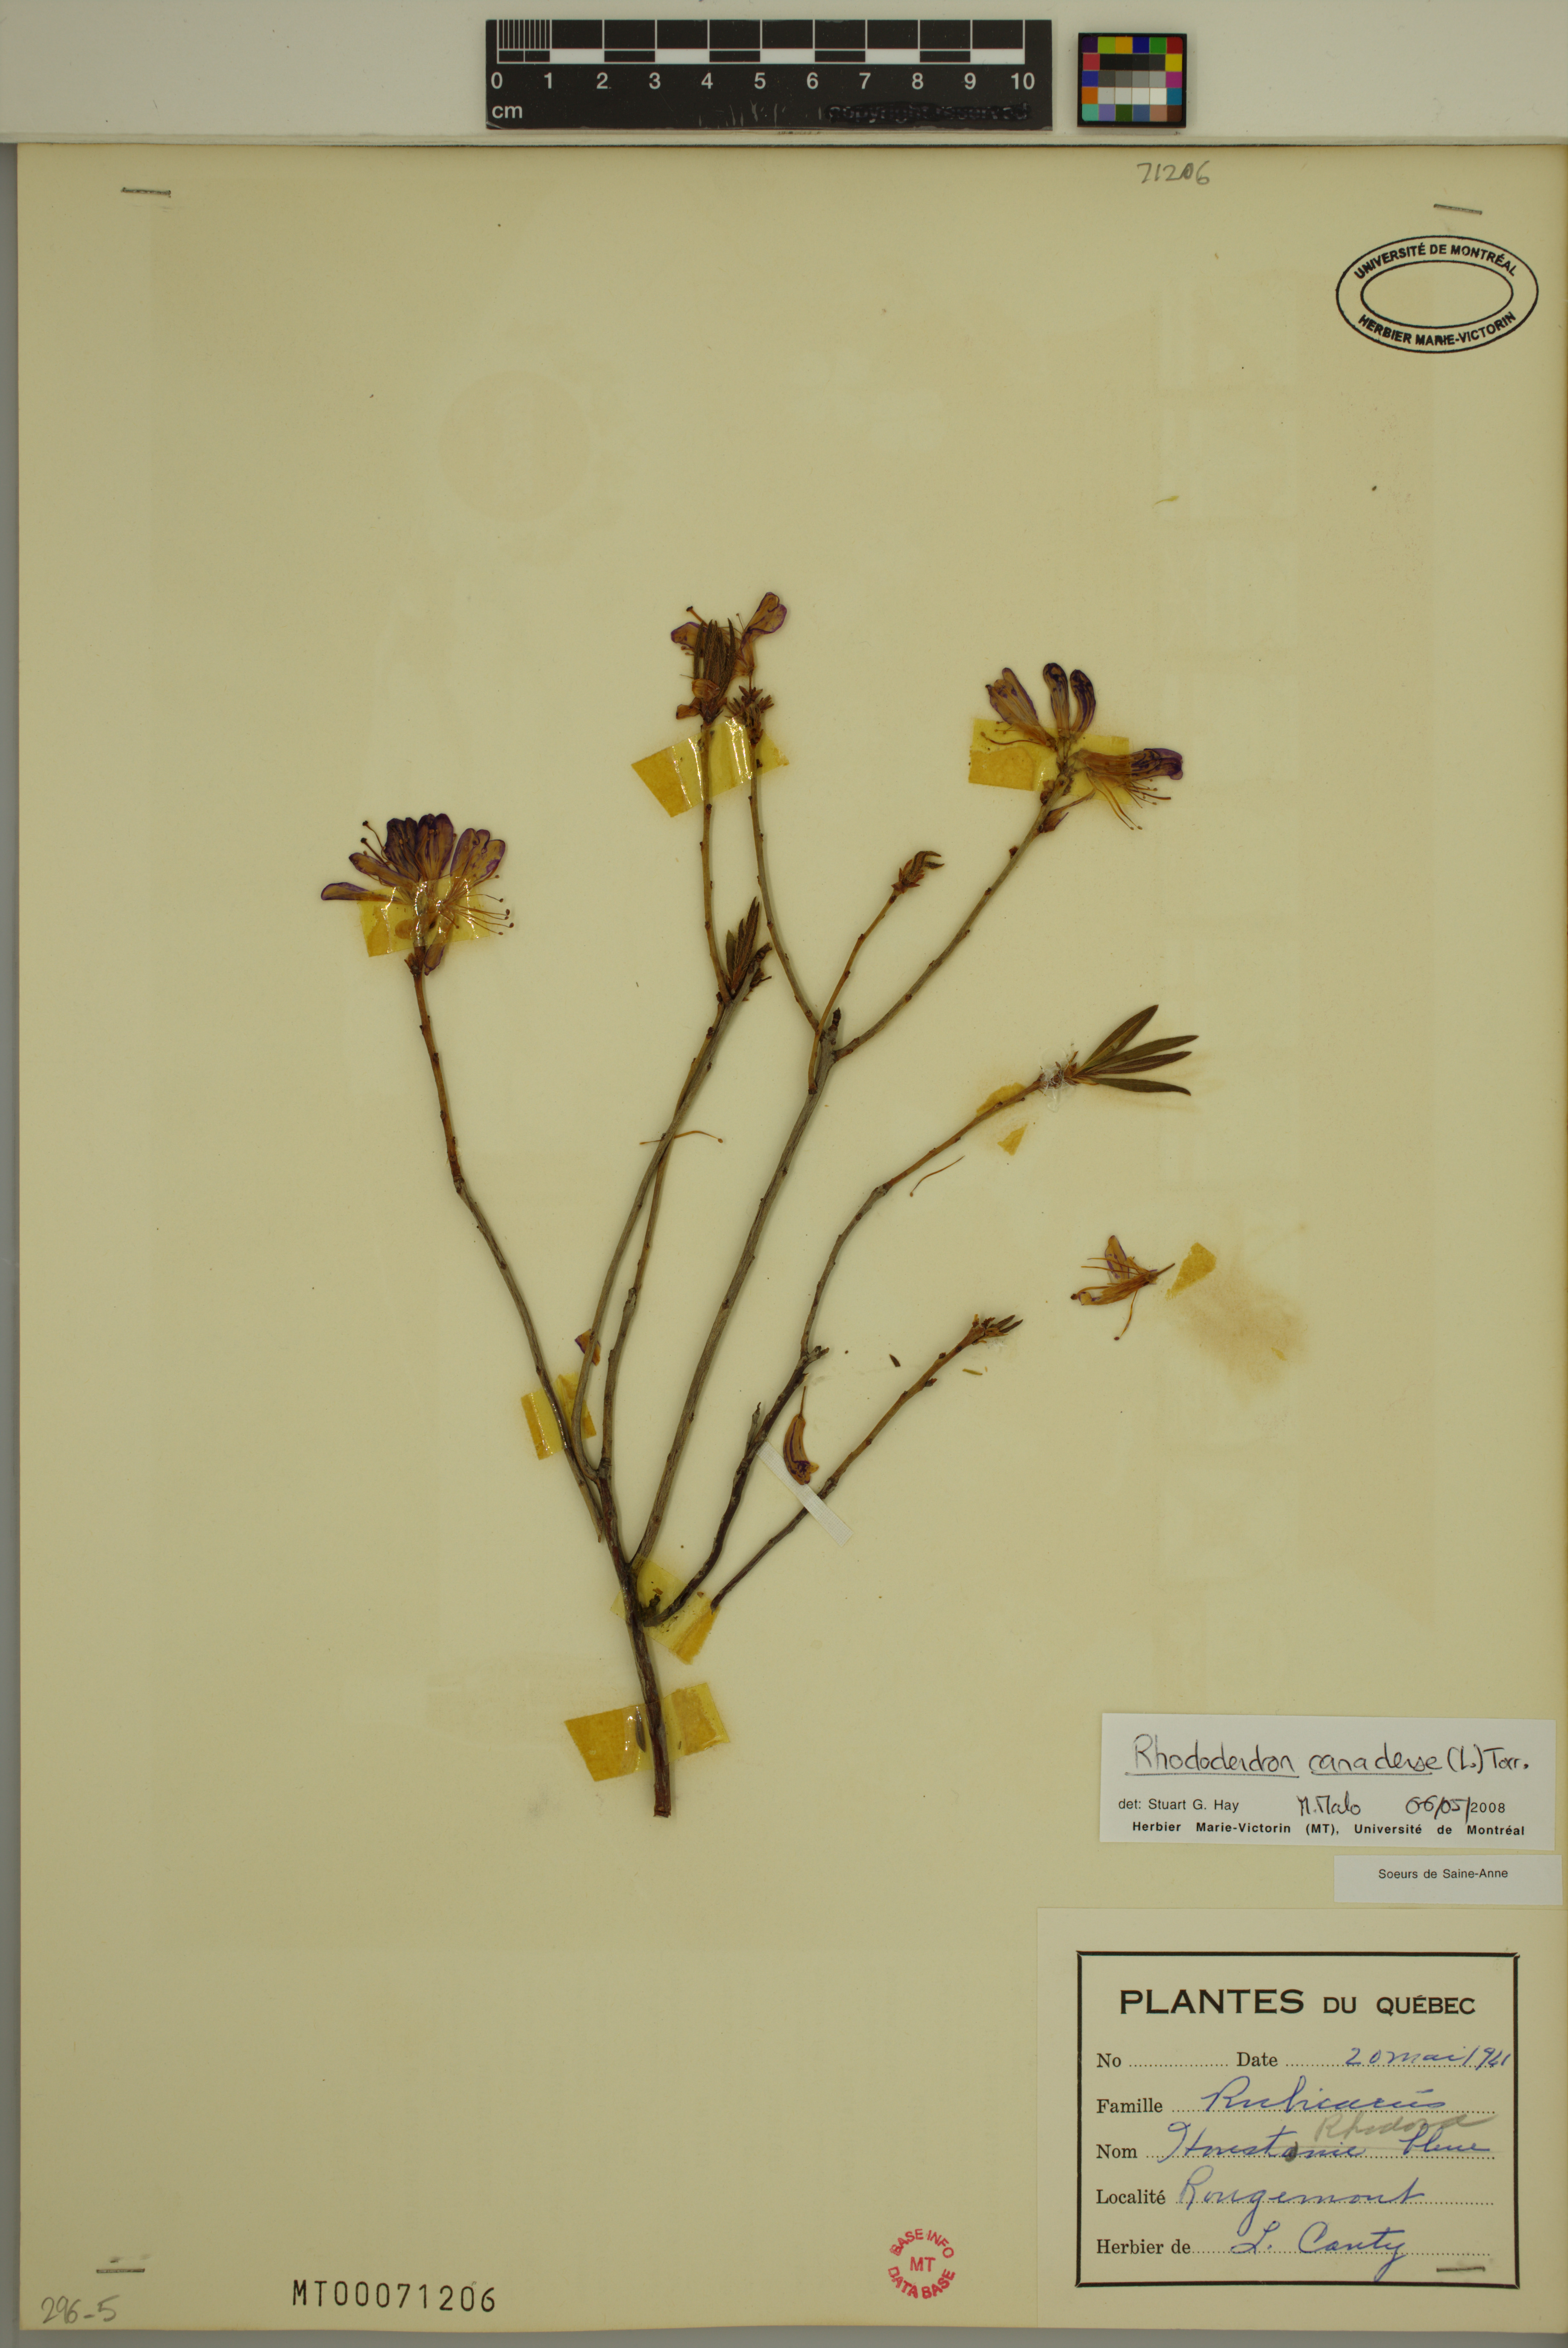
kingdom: Plantae
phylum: Tracheophyta
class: Magnoliopsida
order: Ericales
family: Ericaceae
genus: Rhododendron
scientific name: Rhododendron canadense
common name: Rhodora
